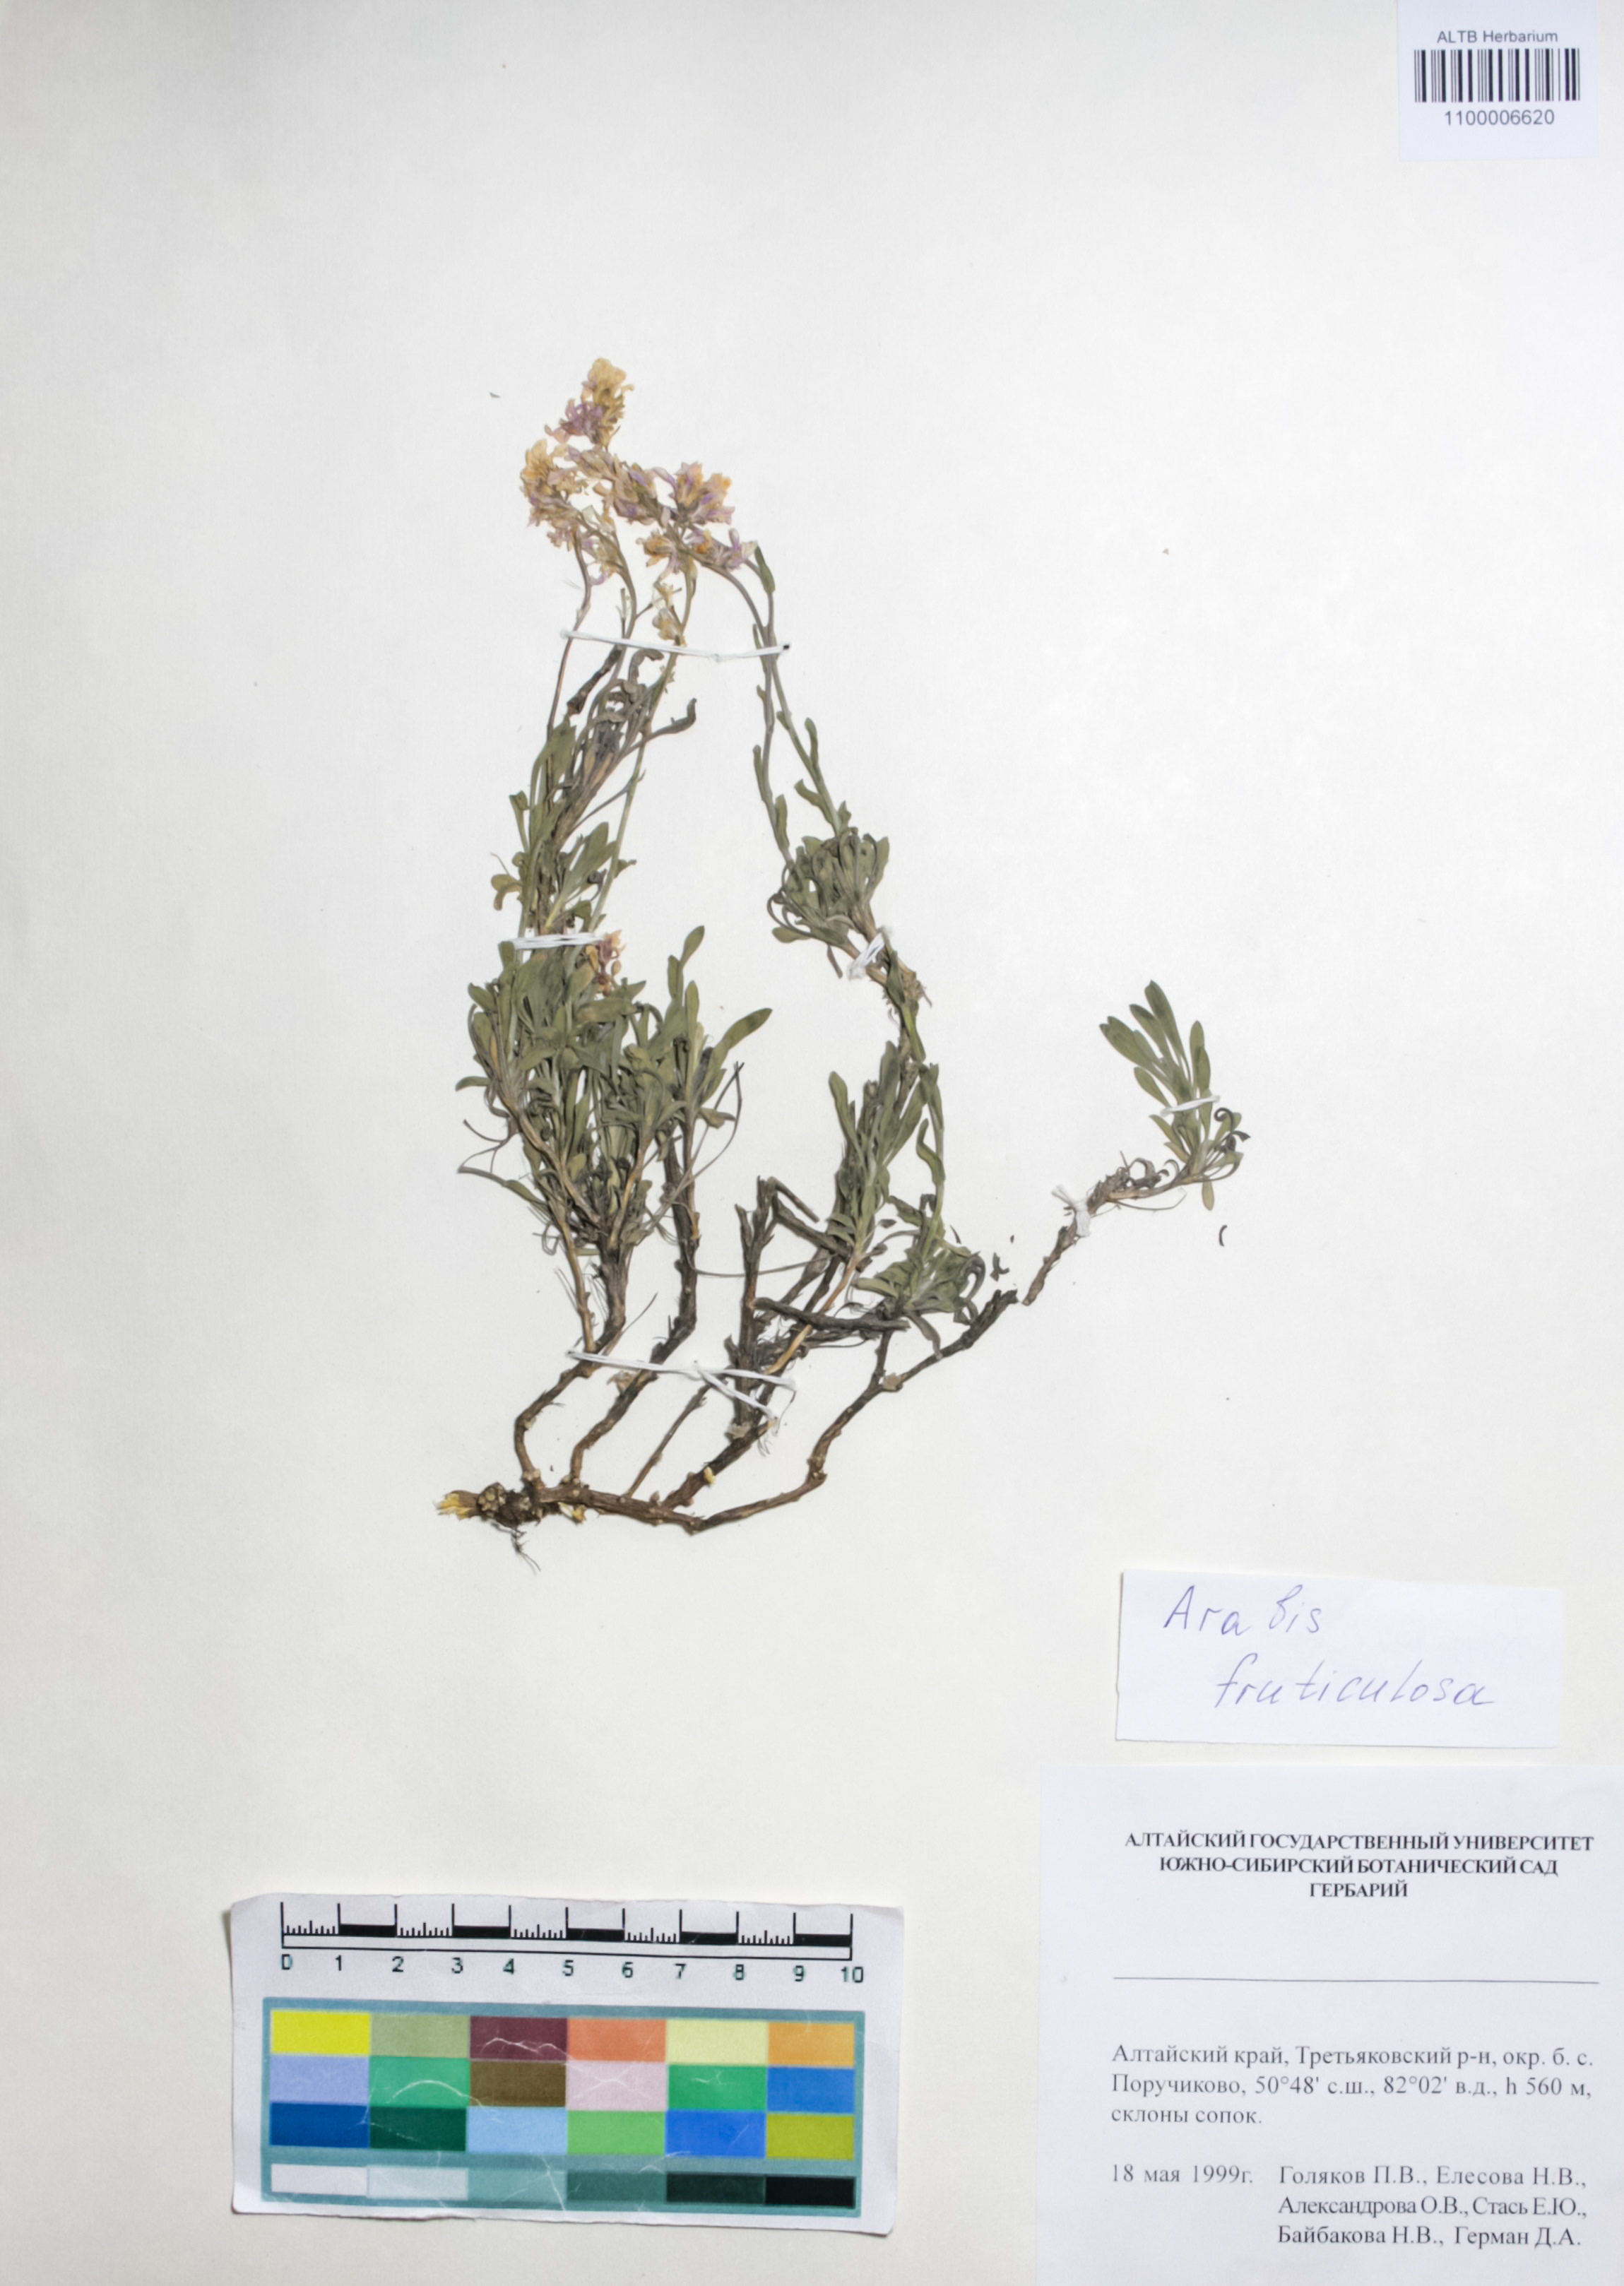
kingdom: Plantae
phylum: Tracheophyta
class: Magnoliopsida
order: Brassicales
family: Brassicaceae
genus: Dendroarabis
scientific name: Dendroarabis fruticulosa
